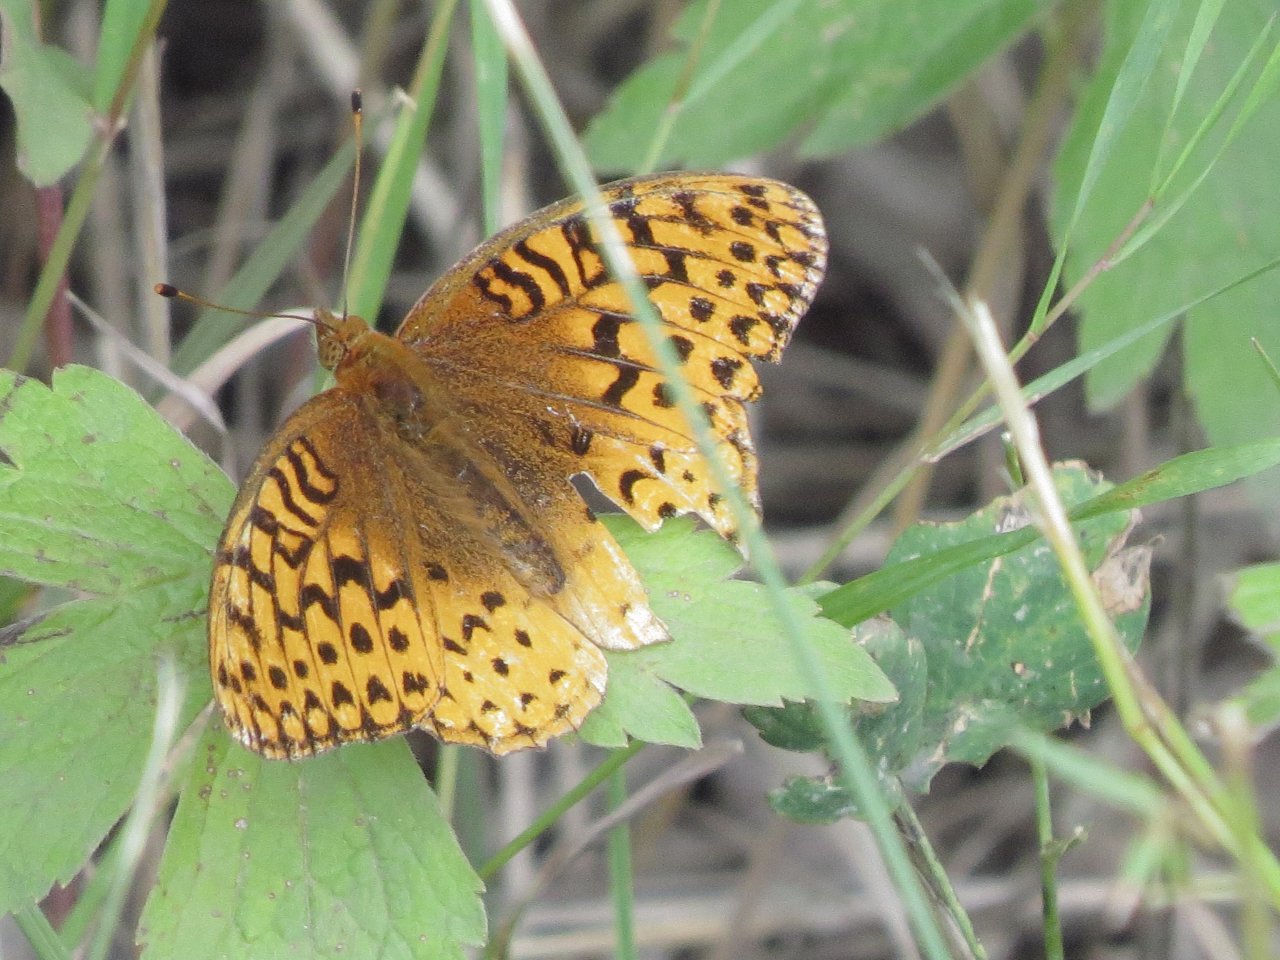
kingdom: Animalia
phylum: Arthropoda
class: Insecta
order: Lepidoptera
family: Nymphalidae
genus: Speyeria
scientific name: Speyeria cybele
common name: Great Spangled Fritillary
